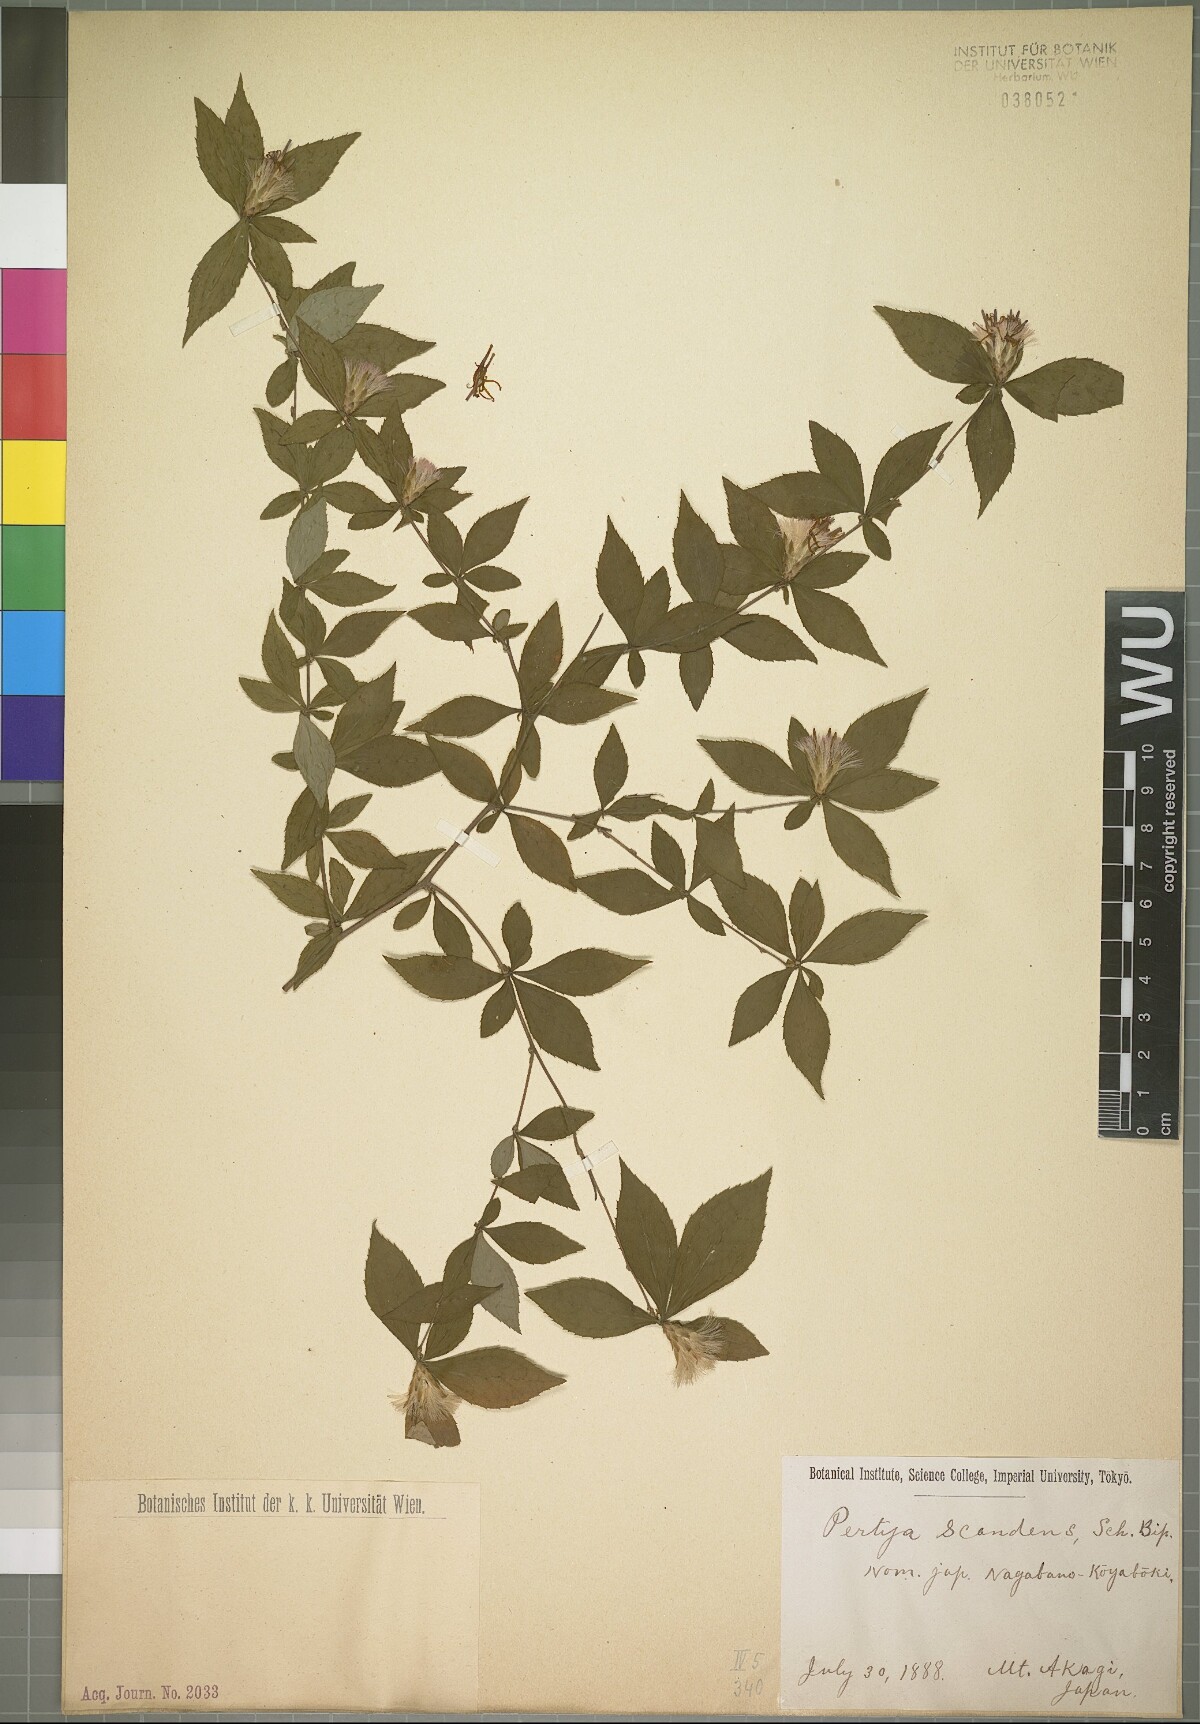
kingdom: Plantae
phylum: Tracheophyta
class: Magnoliopsida
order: Asterales
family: Asteraceae
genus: Pertya
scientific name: Pertya glabrescens
